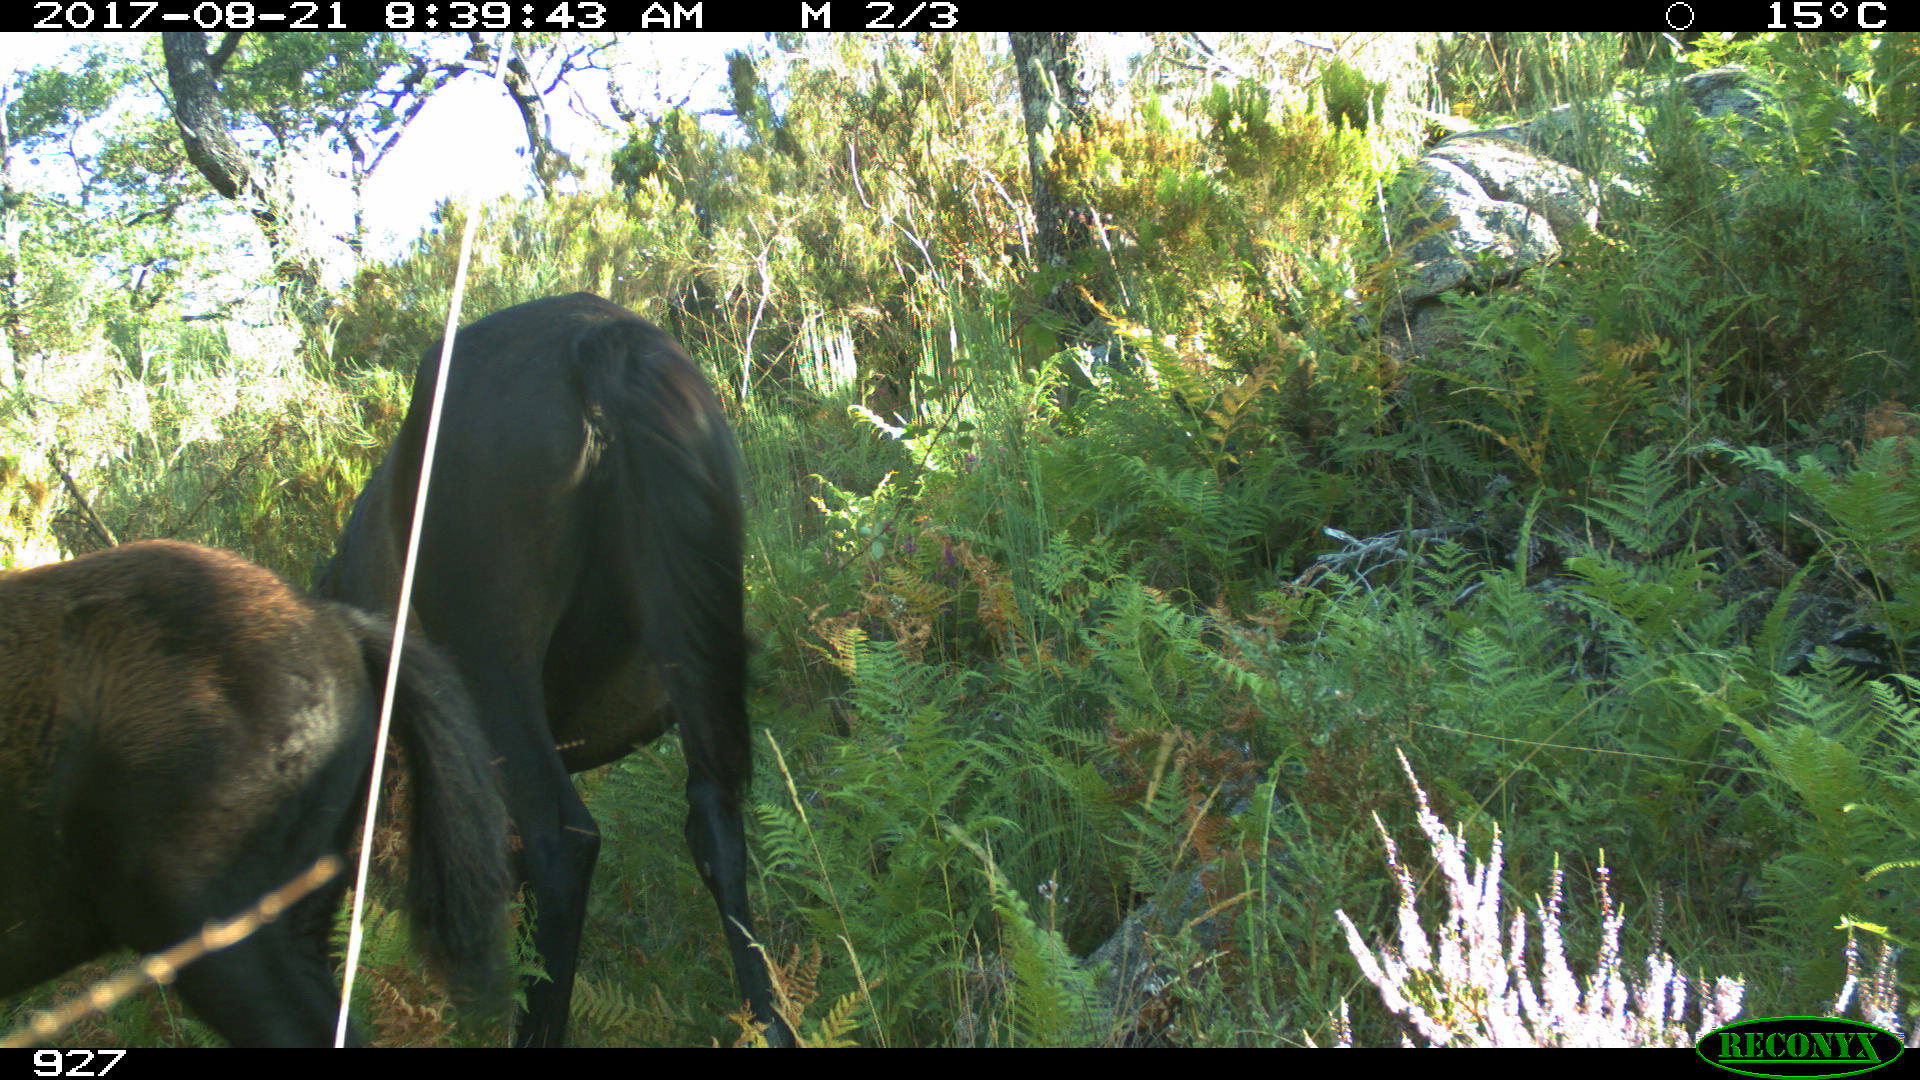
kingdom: Animalia
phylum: Chordata
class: Mammalia
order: Perissodactyla
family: Equidae
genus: Equus
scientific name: Equus caballus
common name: Horse
